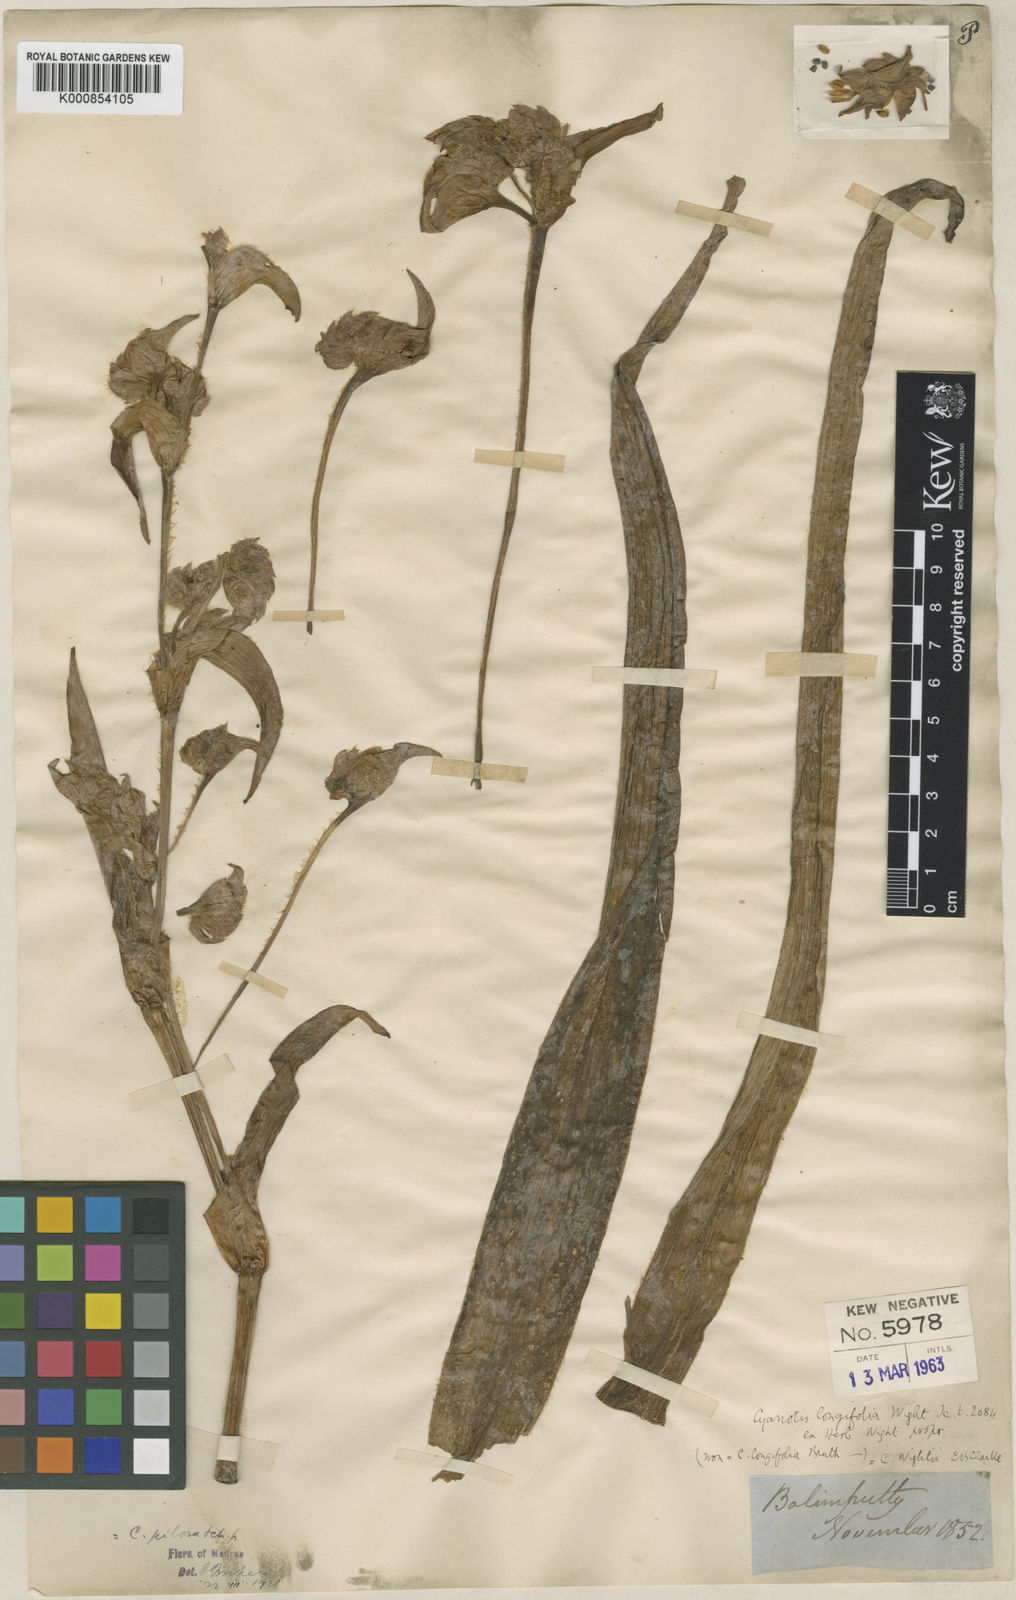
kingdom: Plantae
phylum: Tracheophyta
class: Liliopsida
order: Commelinales
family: Commelinaceae
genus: Cyanotis
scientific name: Cyanotis pilosa
